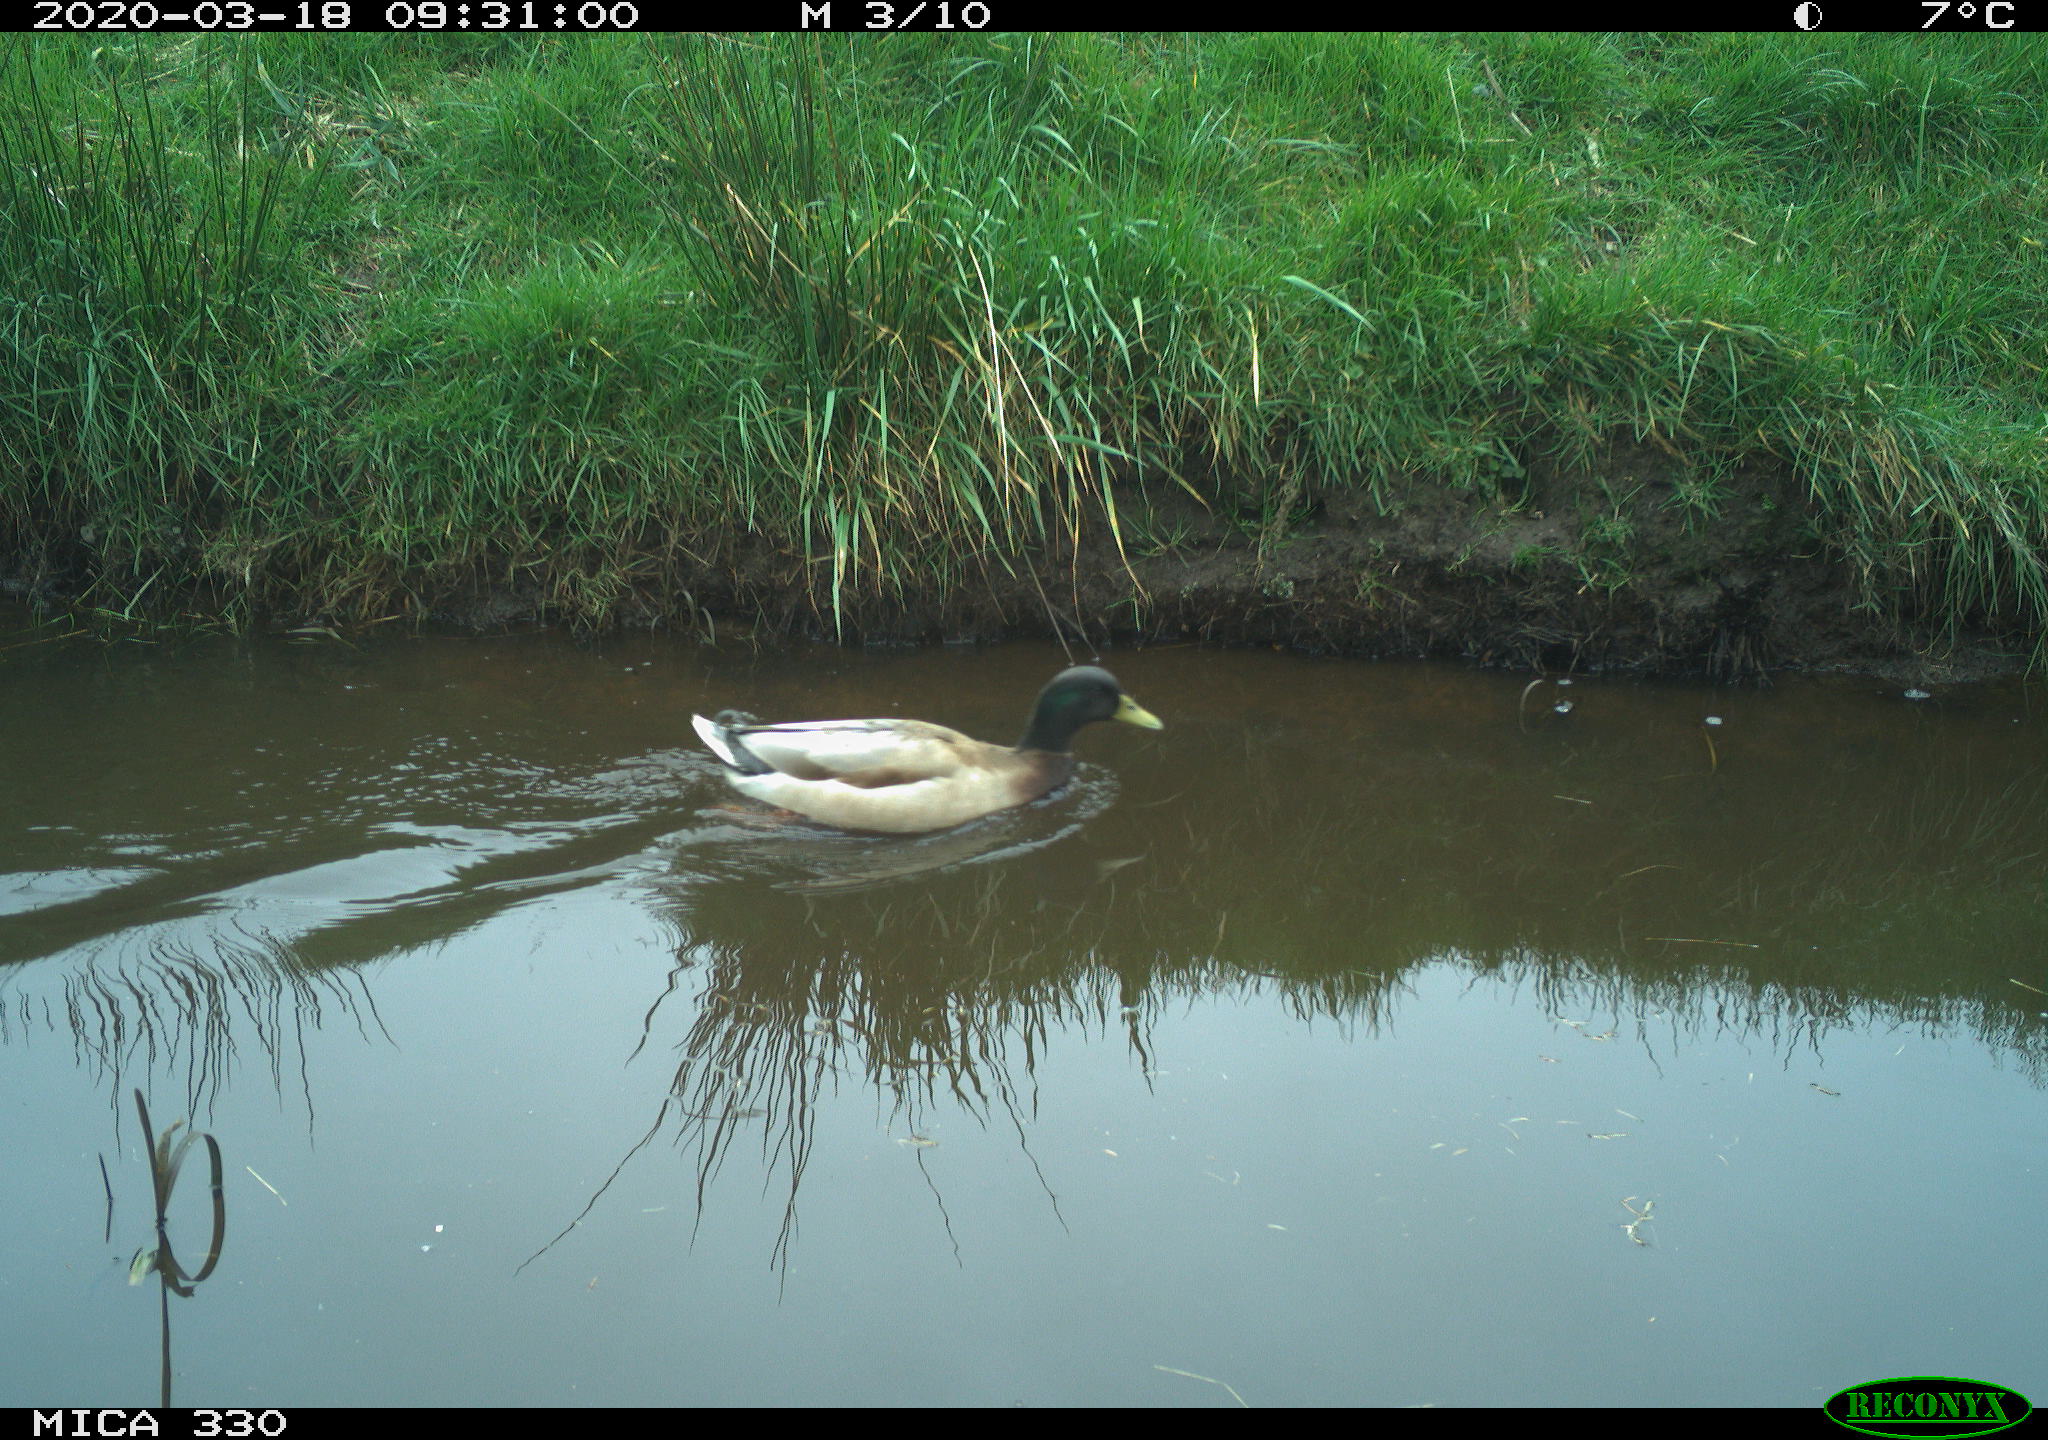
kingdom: Animalia
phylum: Chordata
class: Aves
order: Anseriformes
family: Anatidae
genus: Anas
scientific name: Anas platyrhynchos
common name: Mallard
